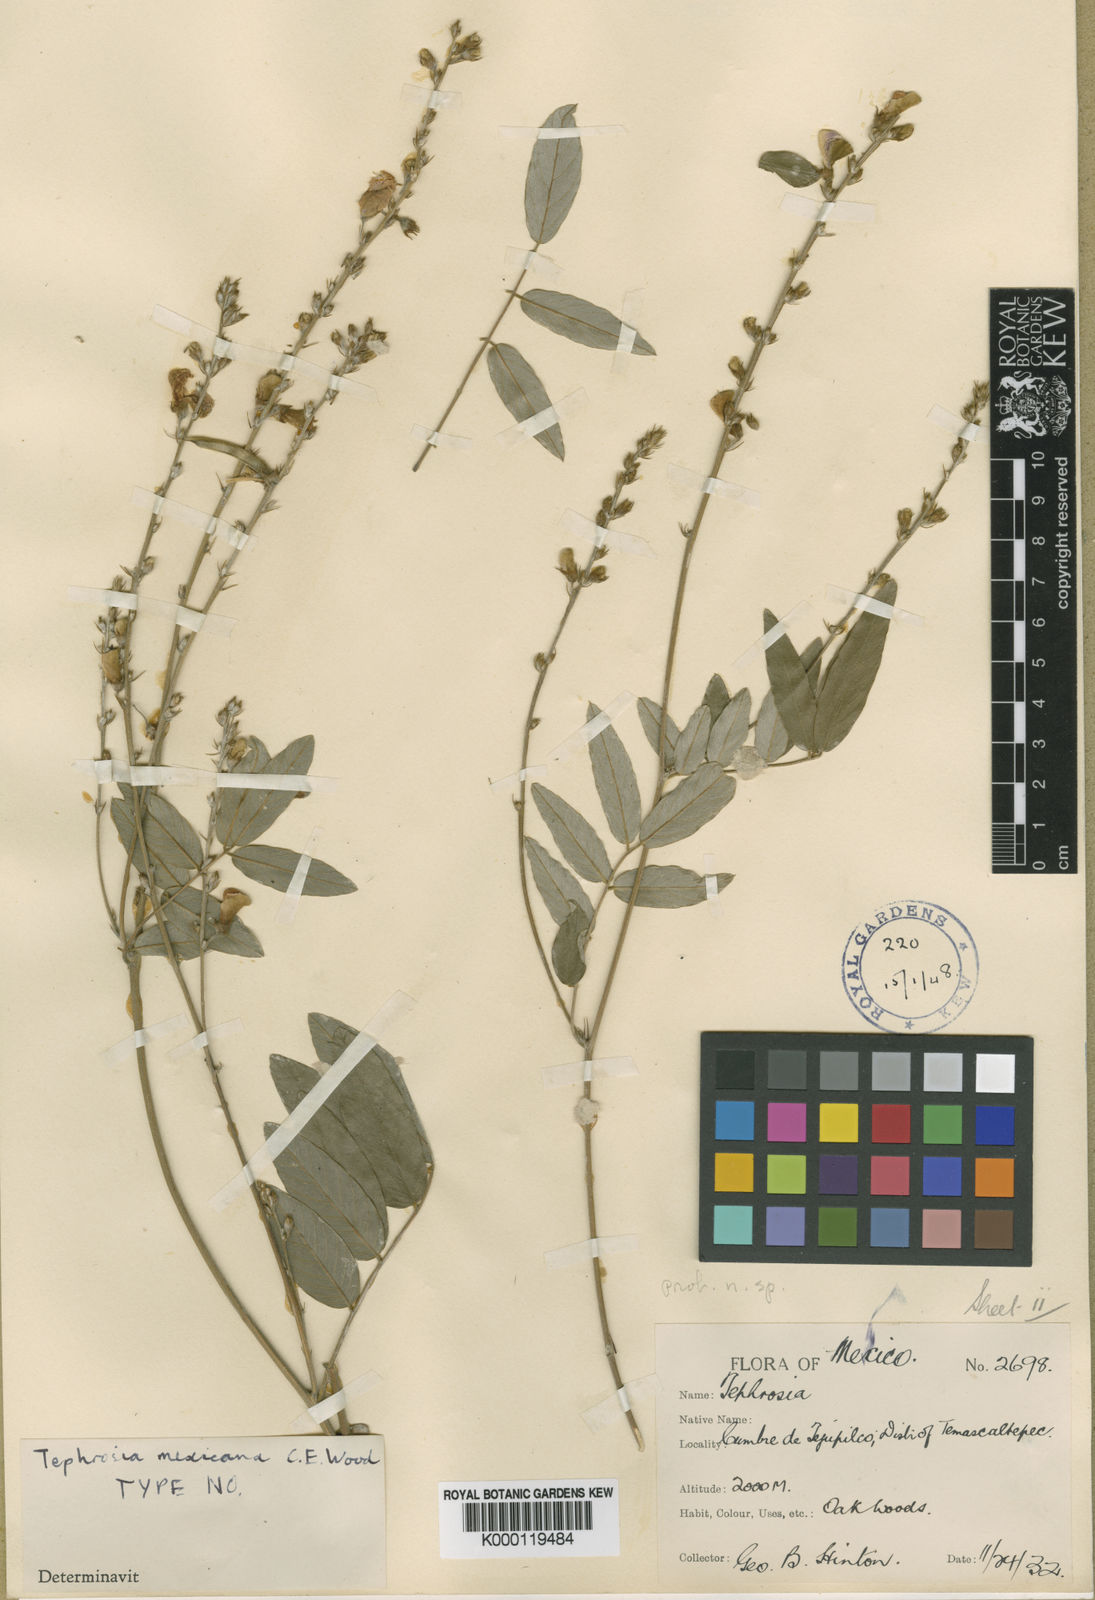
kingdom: Plantae
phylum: Tracheophyta
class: Magnoliopsida
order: Fabales
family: Fabaceae
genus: Tephrosia
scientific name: Tephrosia mexicana
